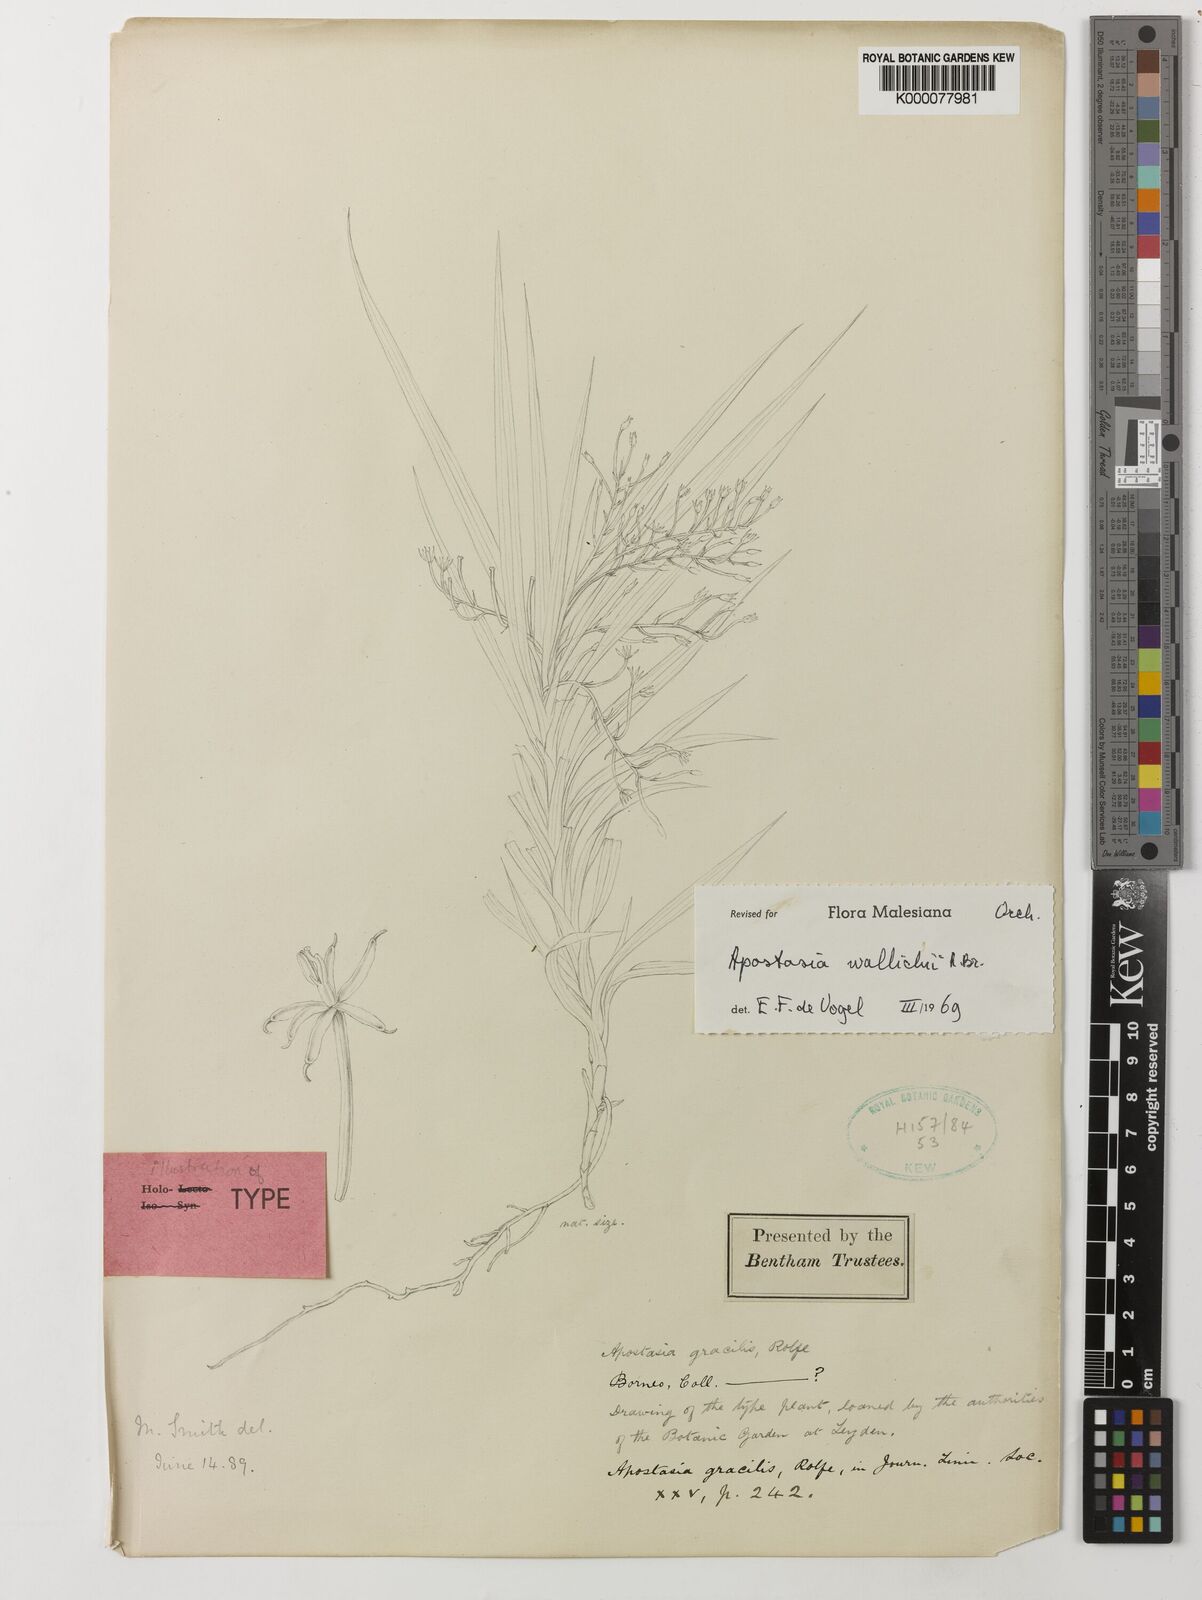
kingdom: Plantae
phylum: Tracheophyta
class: Liliopsida
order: Asparagales
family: Orchidaceae
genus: Apostasia
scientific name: Apostasia wallichii
